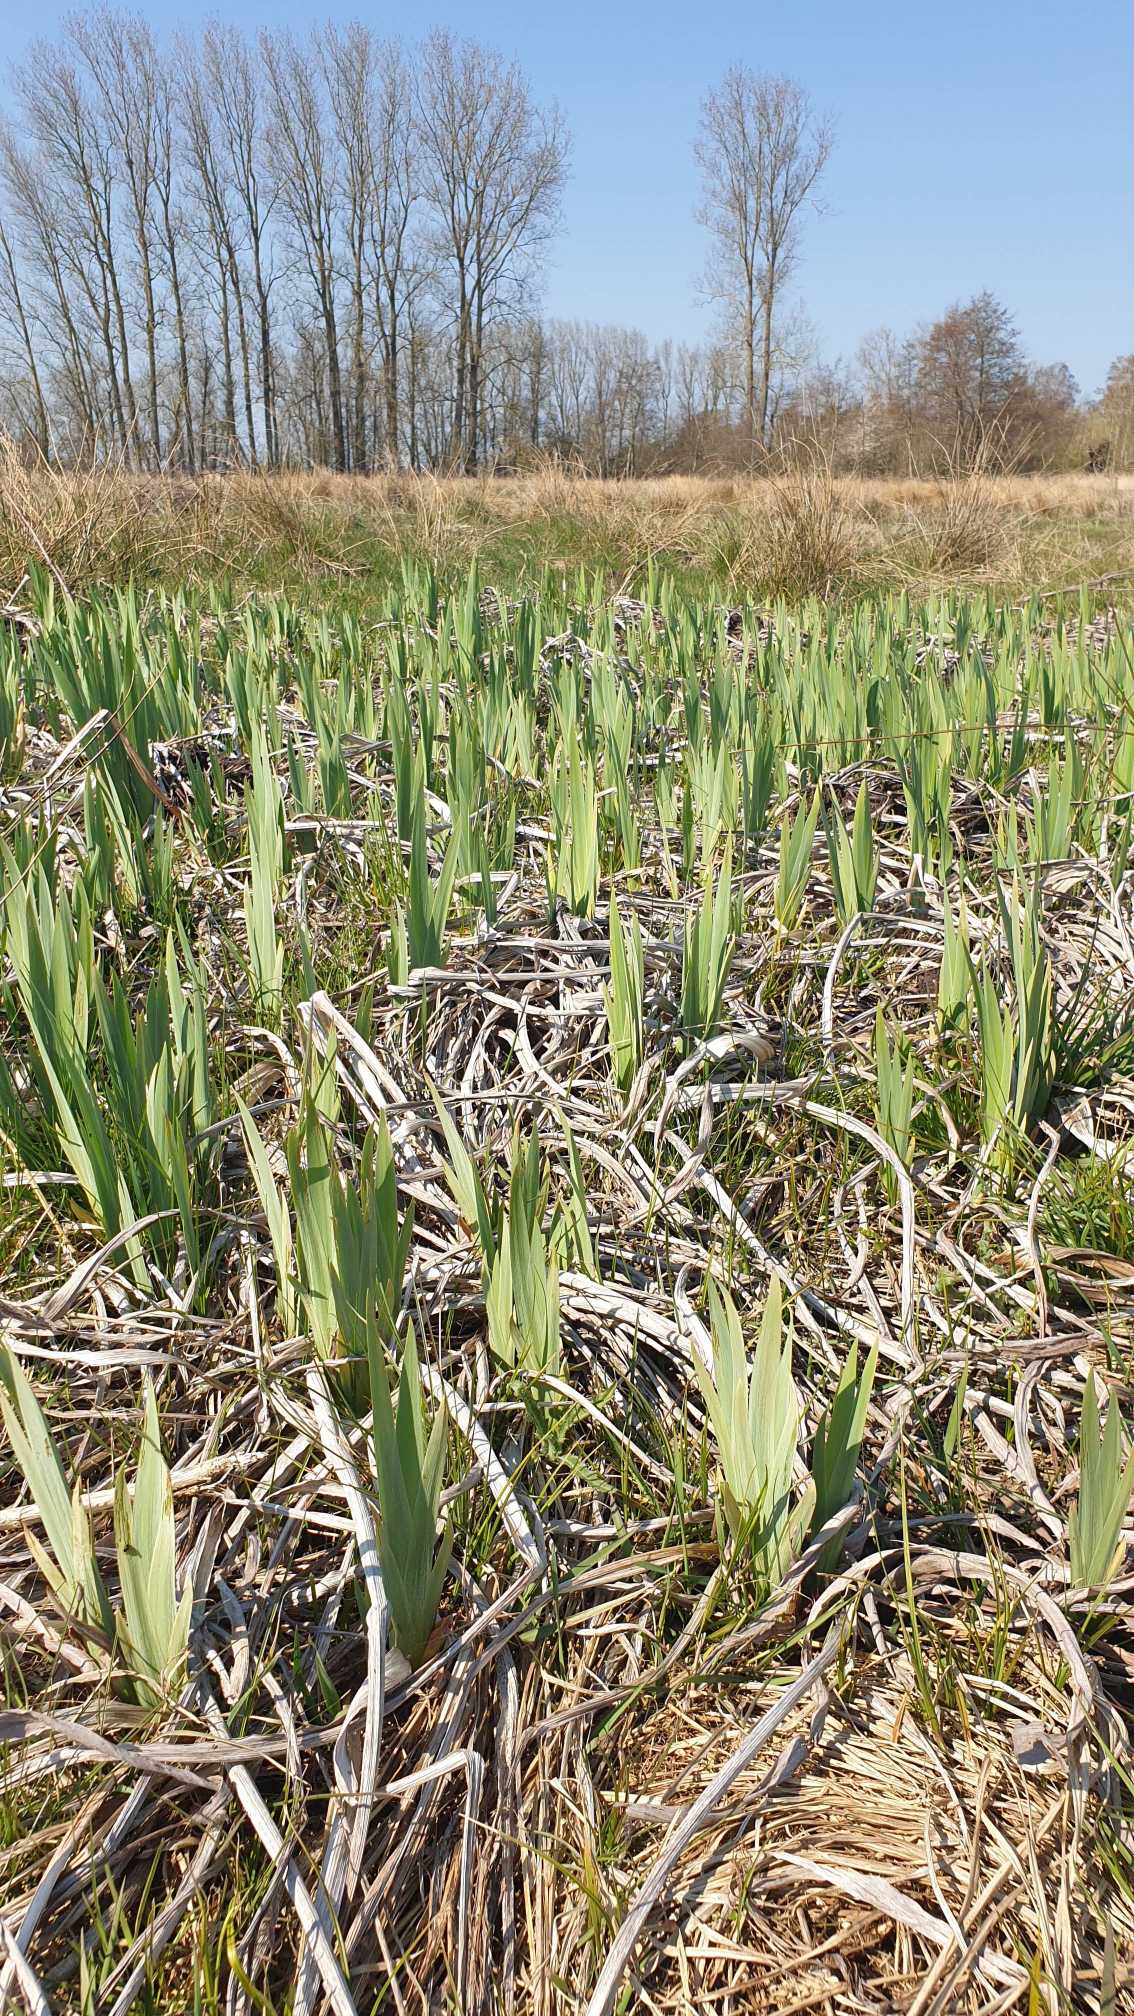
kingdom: Plantae
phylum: Tracheophyta
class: Liliopsida
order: Asparagales
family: Iridaceae
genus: Iris
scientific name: Iris pseudacorus
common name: Gul iris
